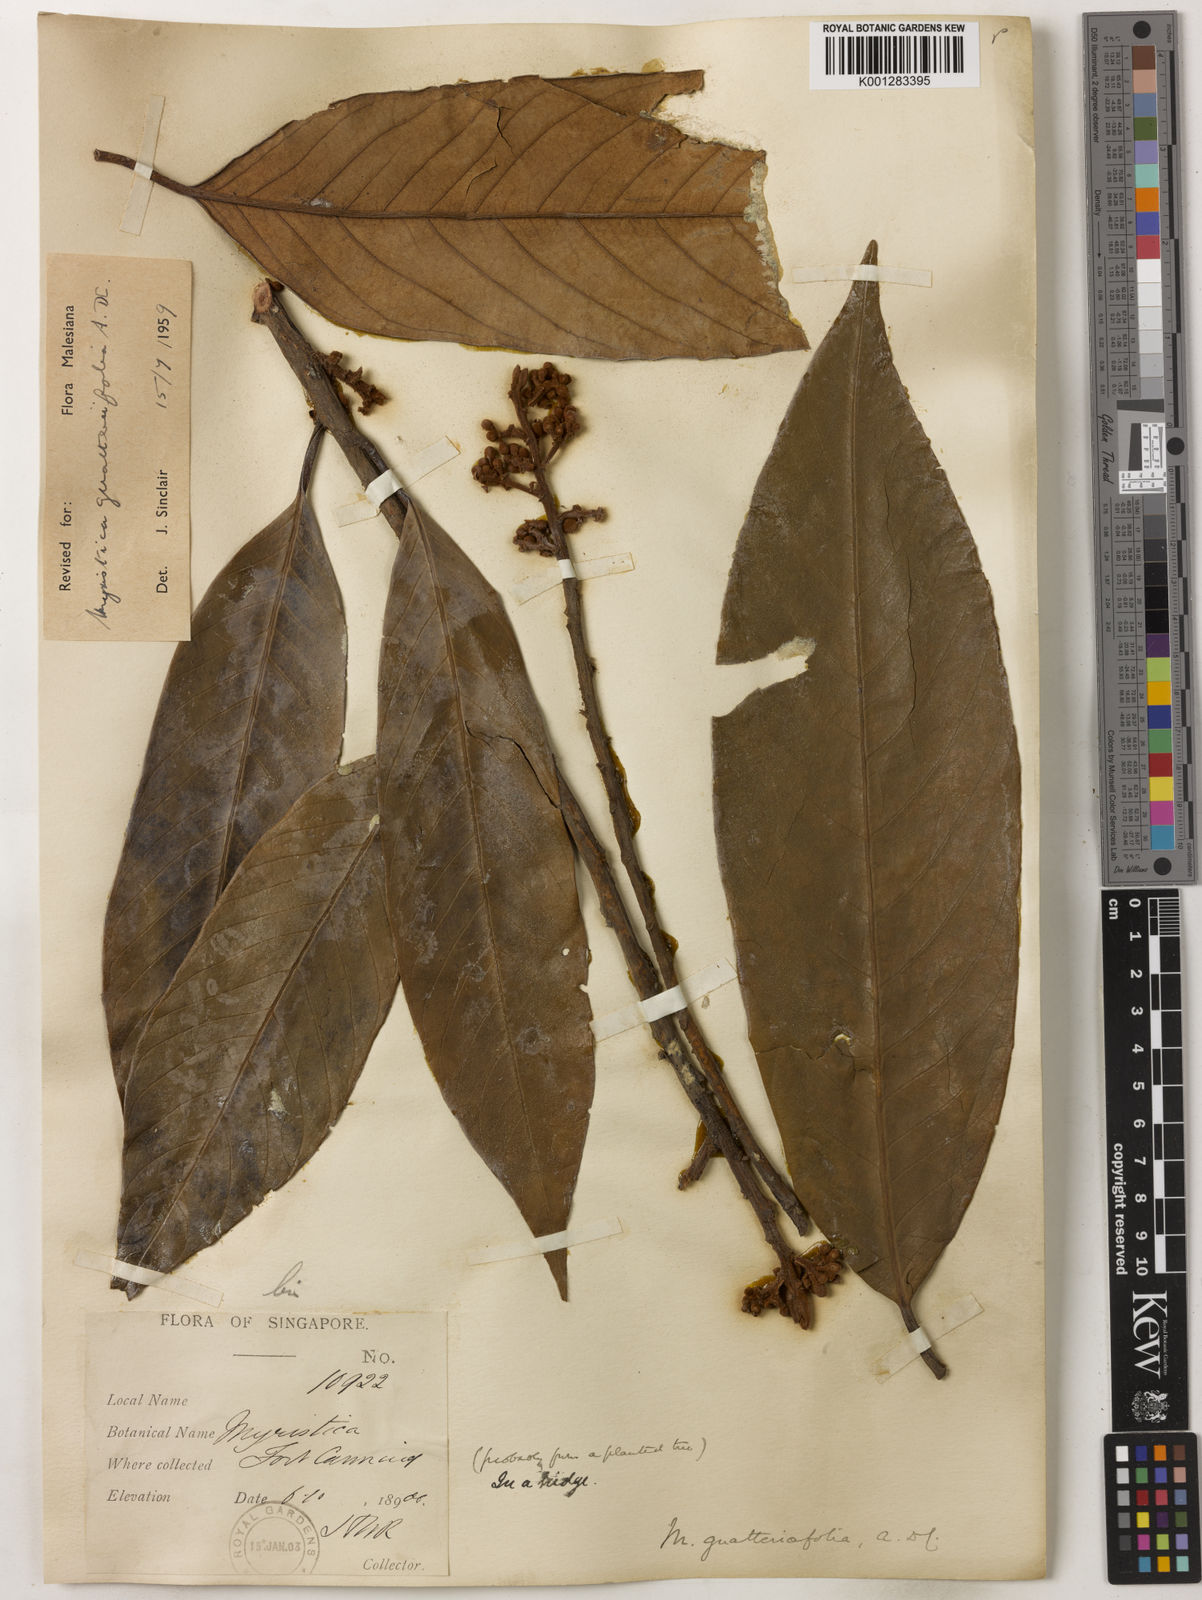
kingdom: Plantae
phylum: Tracheophyta
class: Magnoliopsida
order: Magnoliales
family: Myristicaceae
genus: Myristica
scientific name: Myristica
